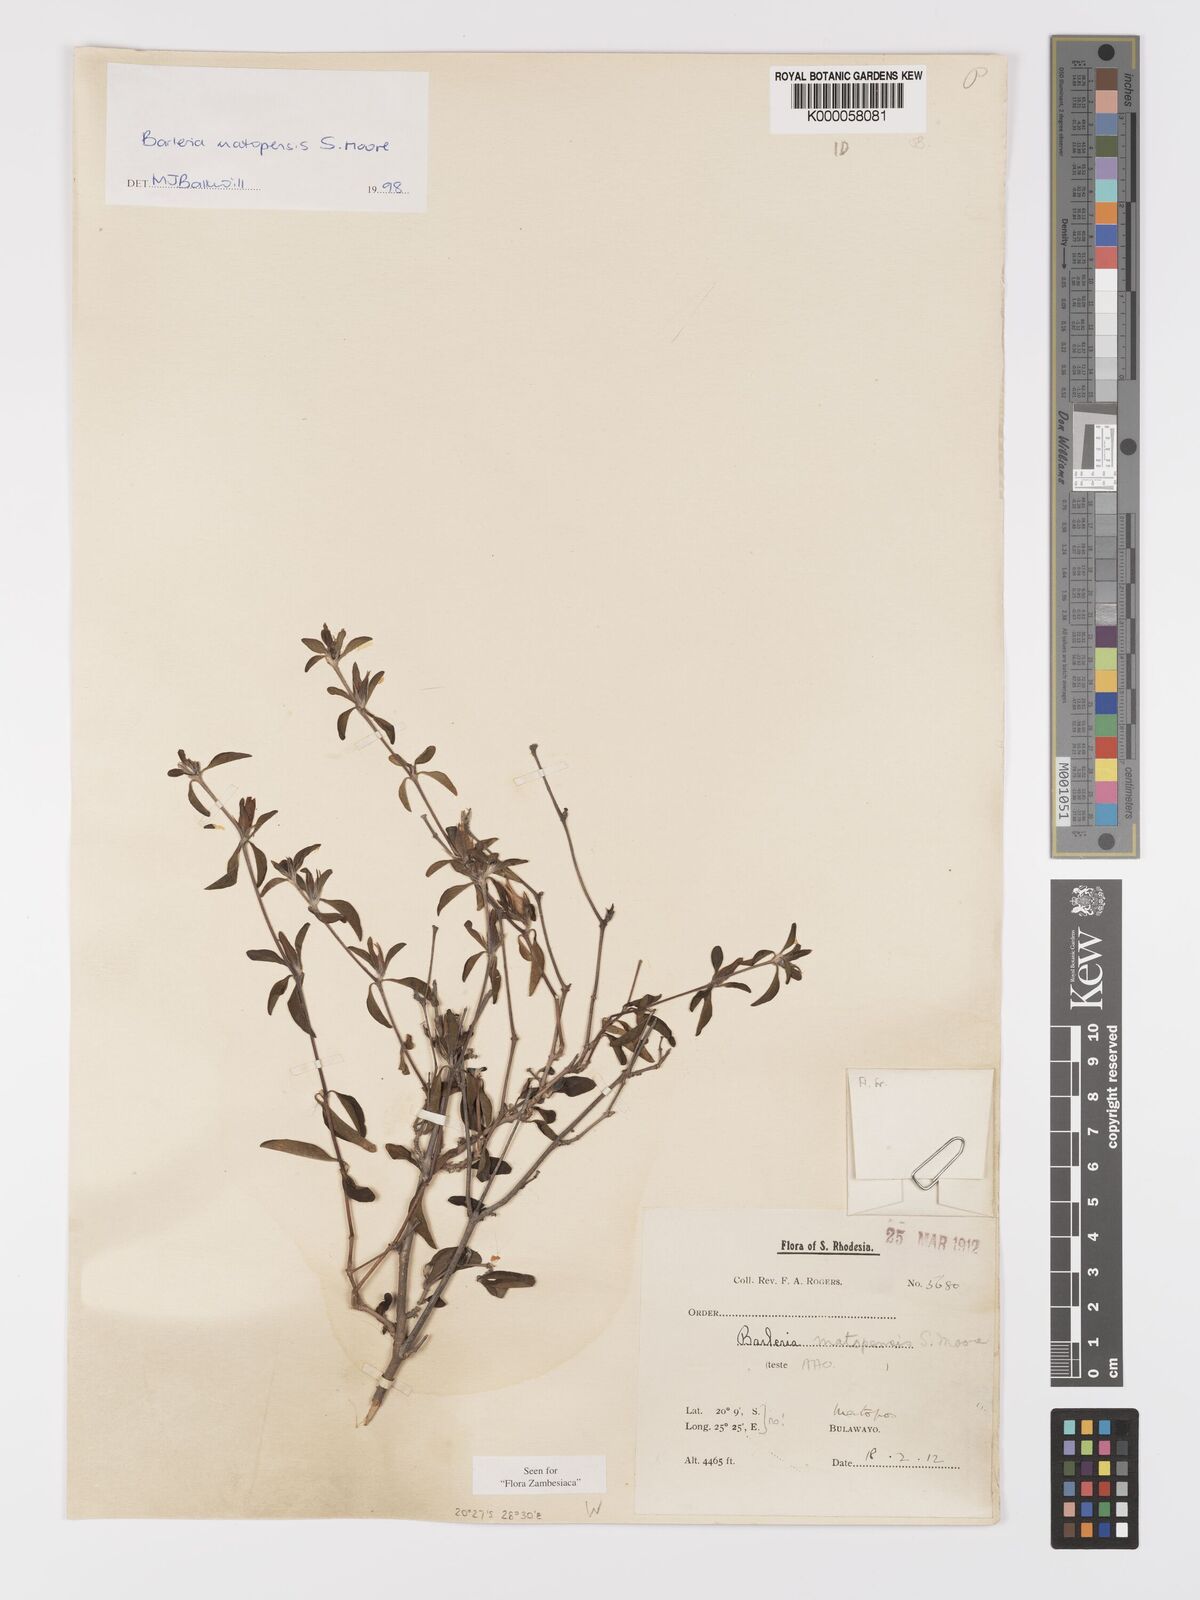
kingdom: Plantae
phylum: Tracheophyta
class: Magnoliopsida
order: Lamiales
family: Acanthaceae
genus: Barleria
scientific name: Barleria matopensis
